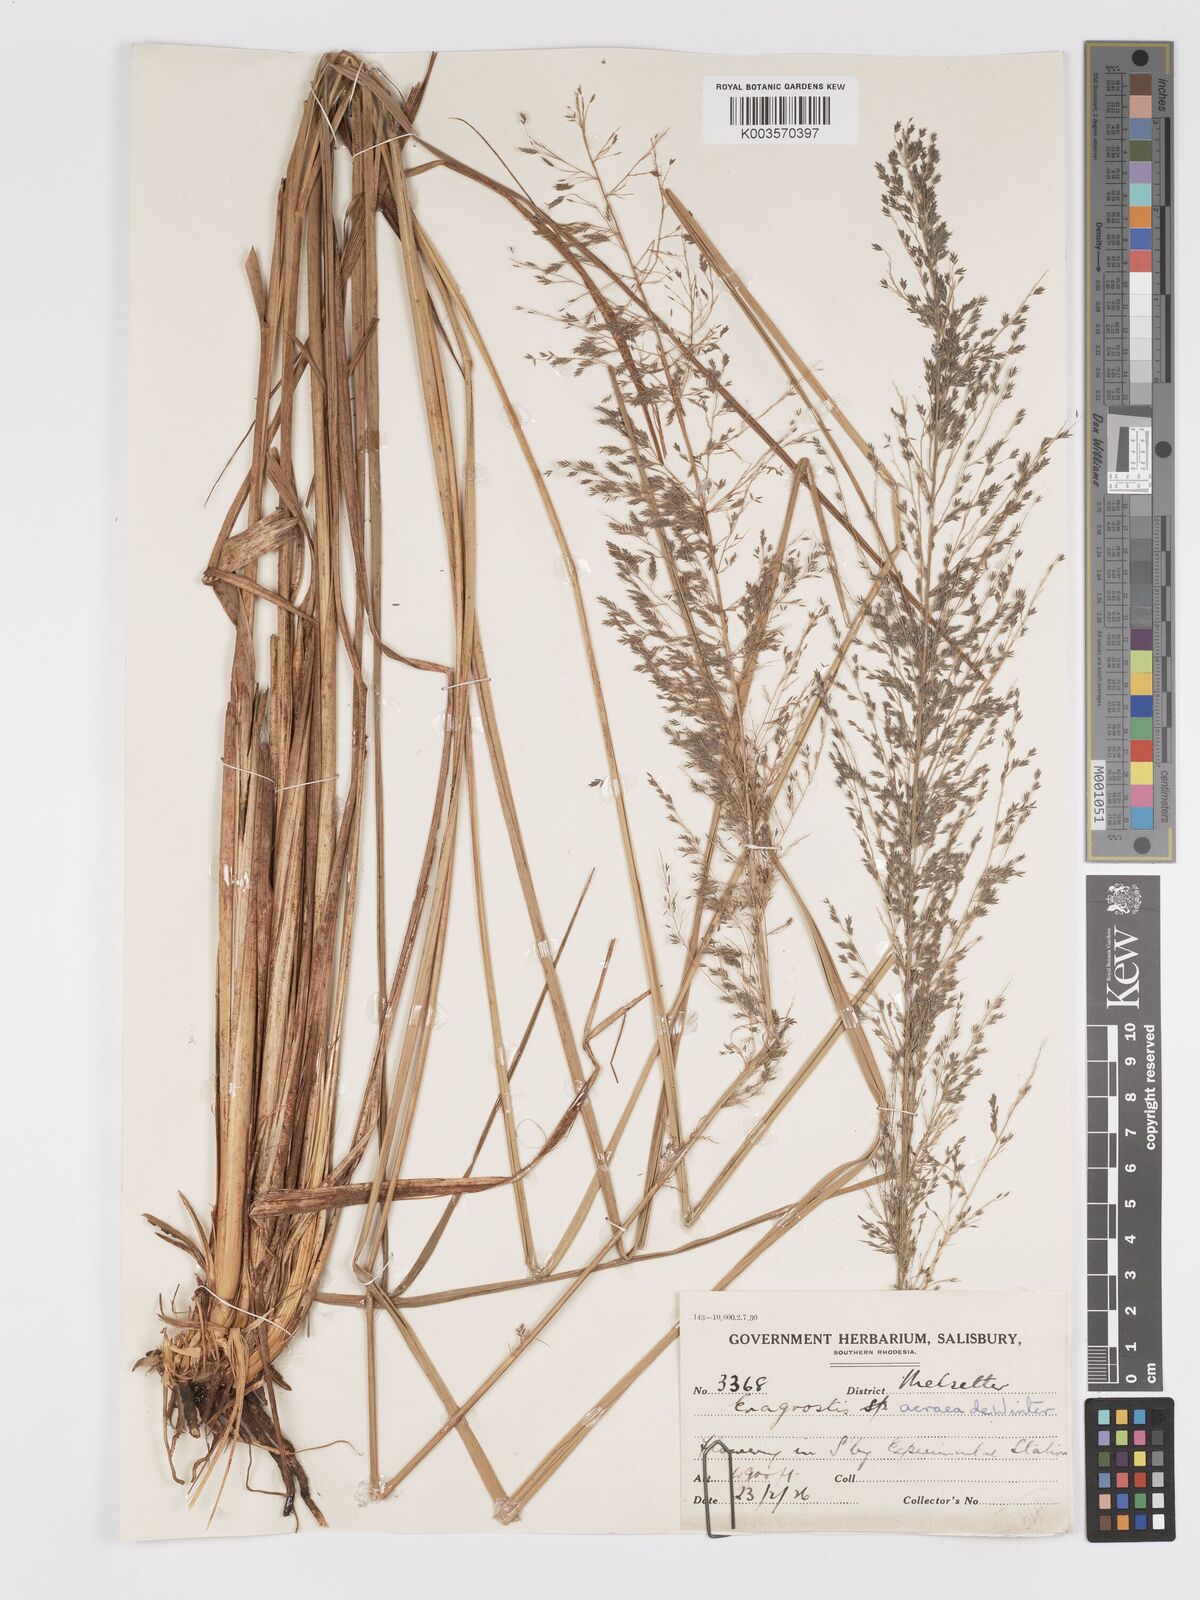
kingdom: Plantae
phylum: Tracheophyta
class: Liliopsida
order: Poales
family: Poaceae
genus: Eragrostis
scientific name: Eragrostis acraea
